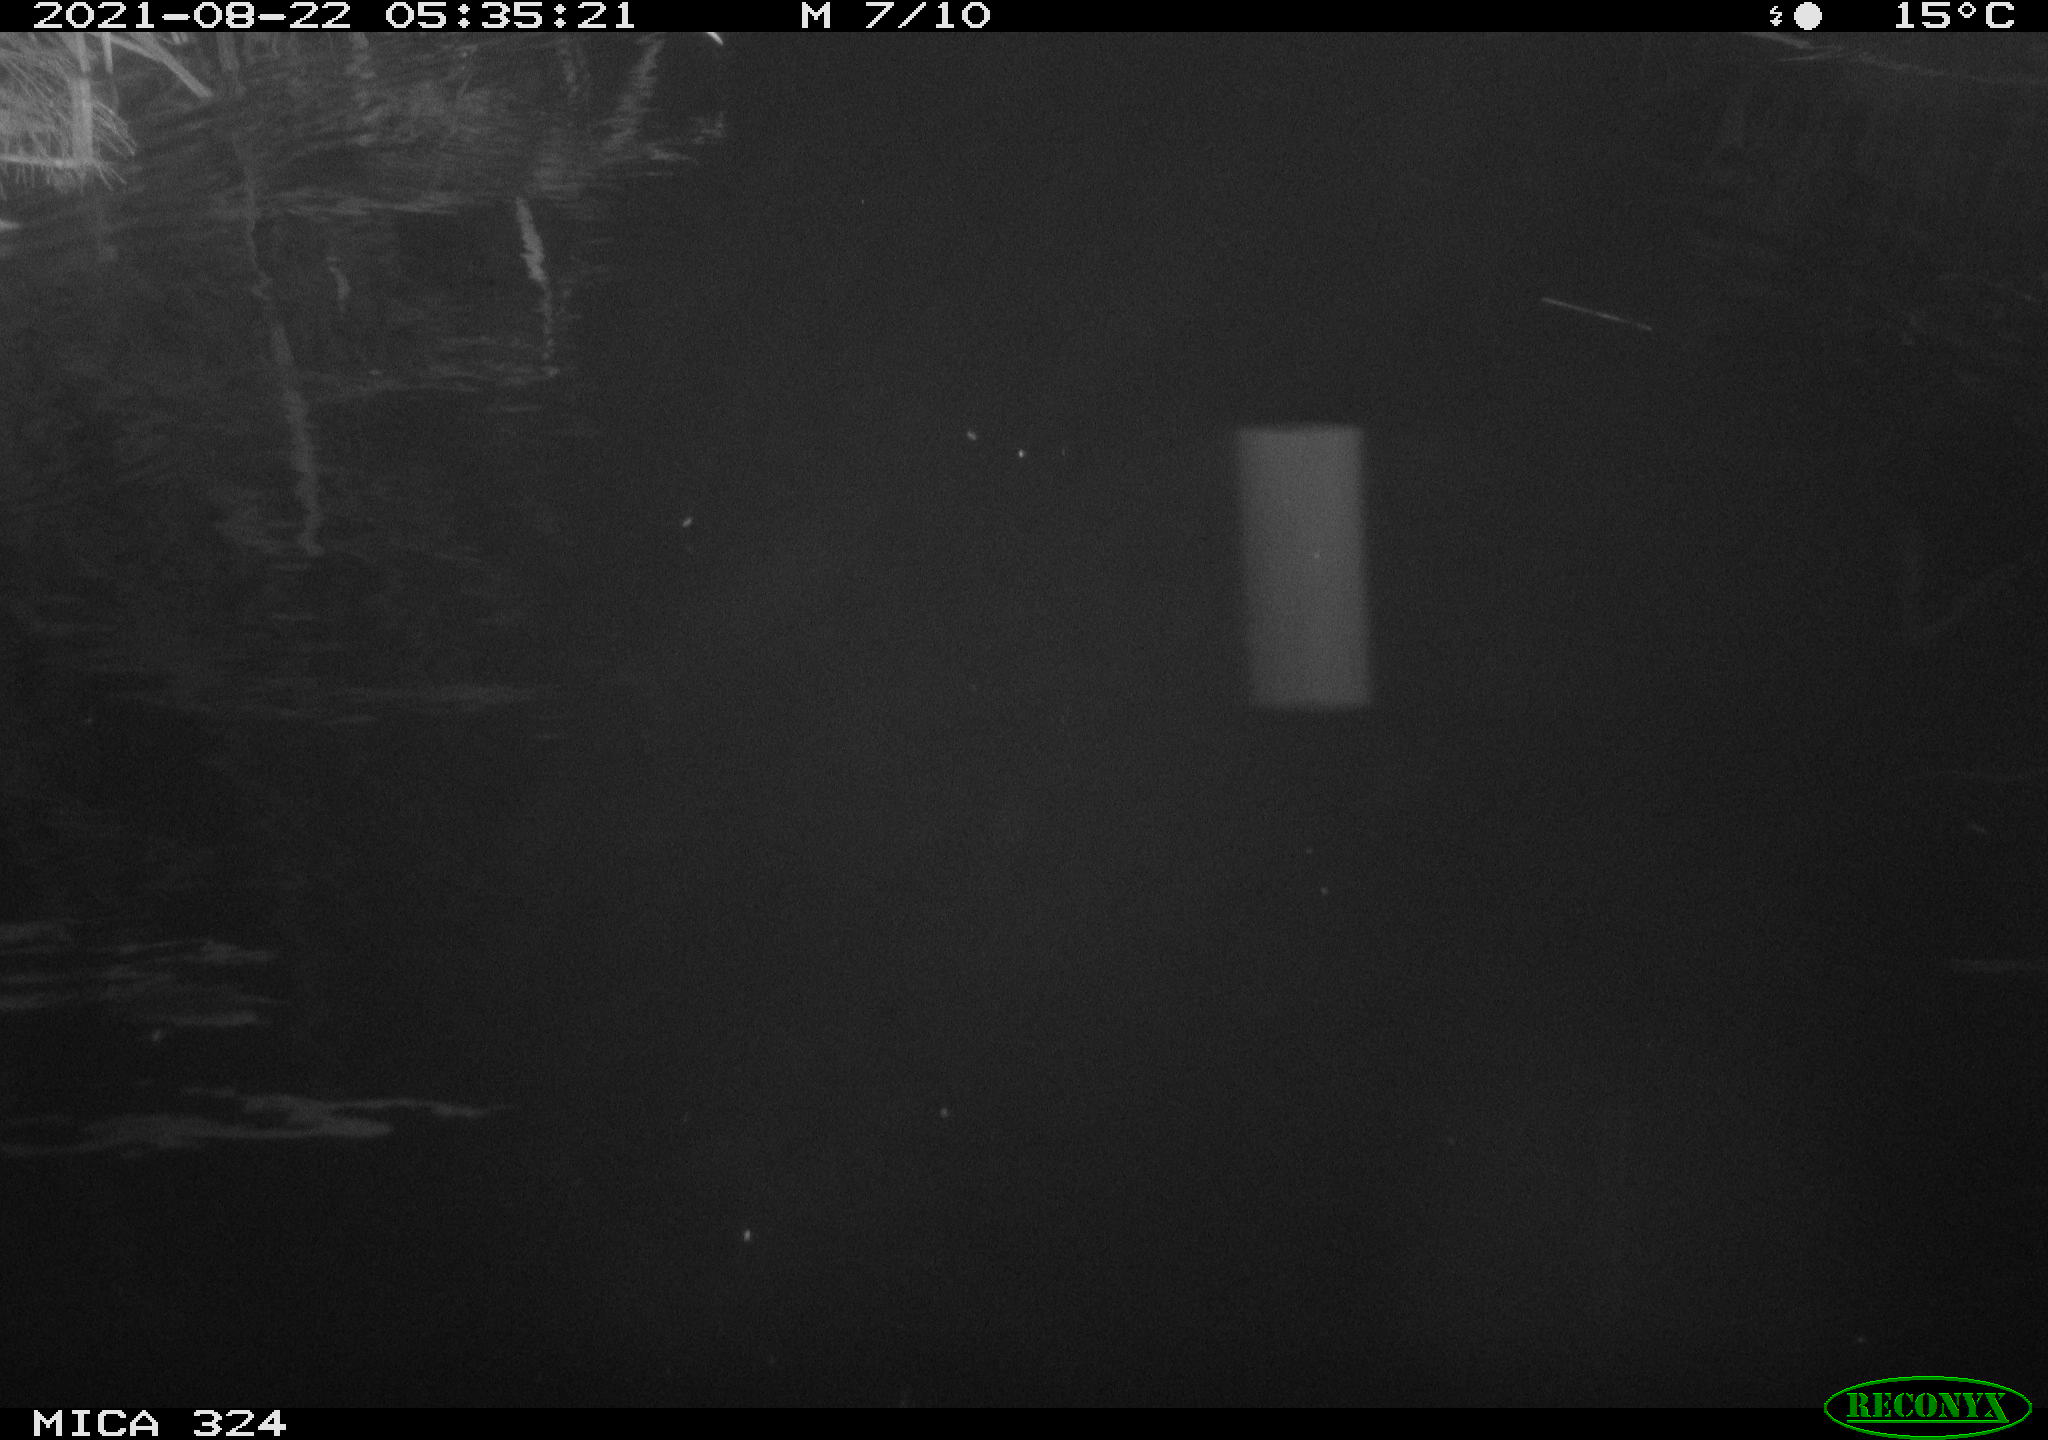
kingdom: Animalia
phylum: Chordata
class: Mammalia
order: Rodentia
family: Cricetidae
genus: Ondatra
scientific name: Ondatra zibethicus
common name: Muskrat
